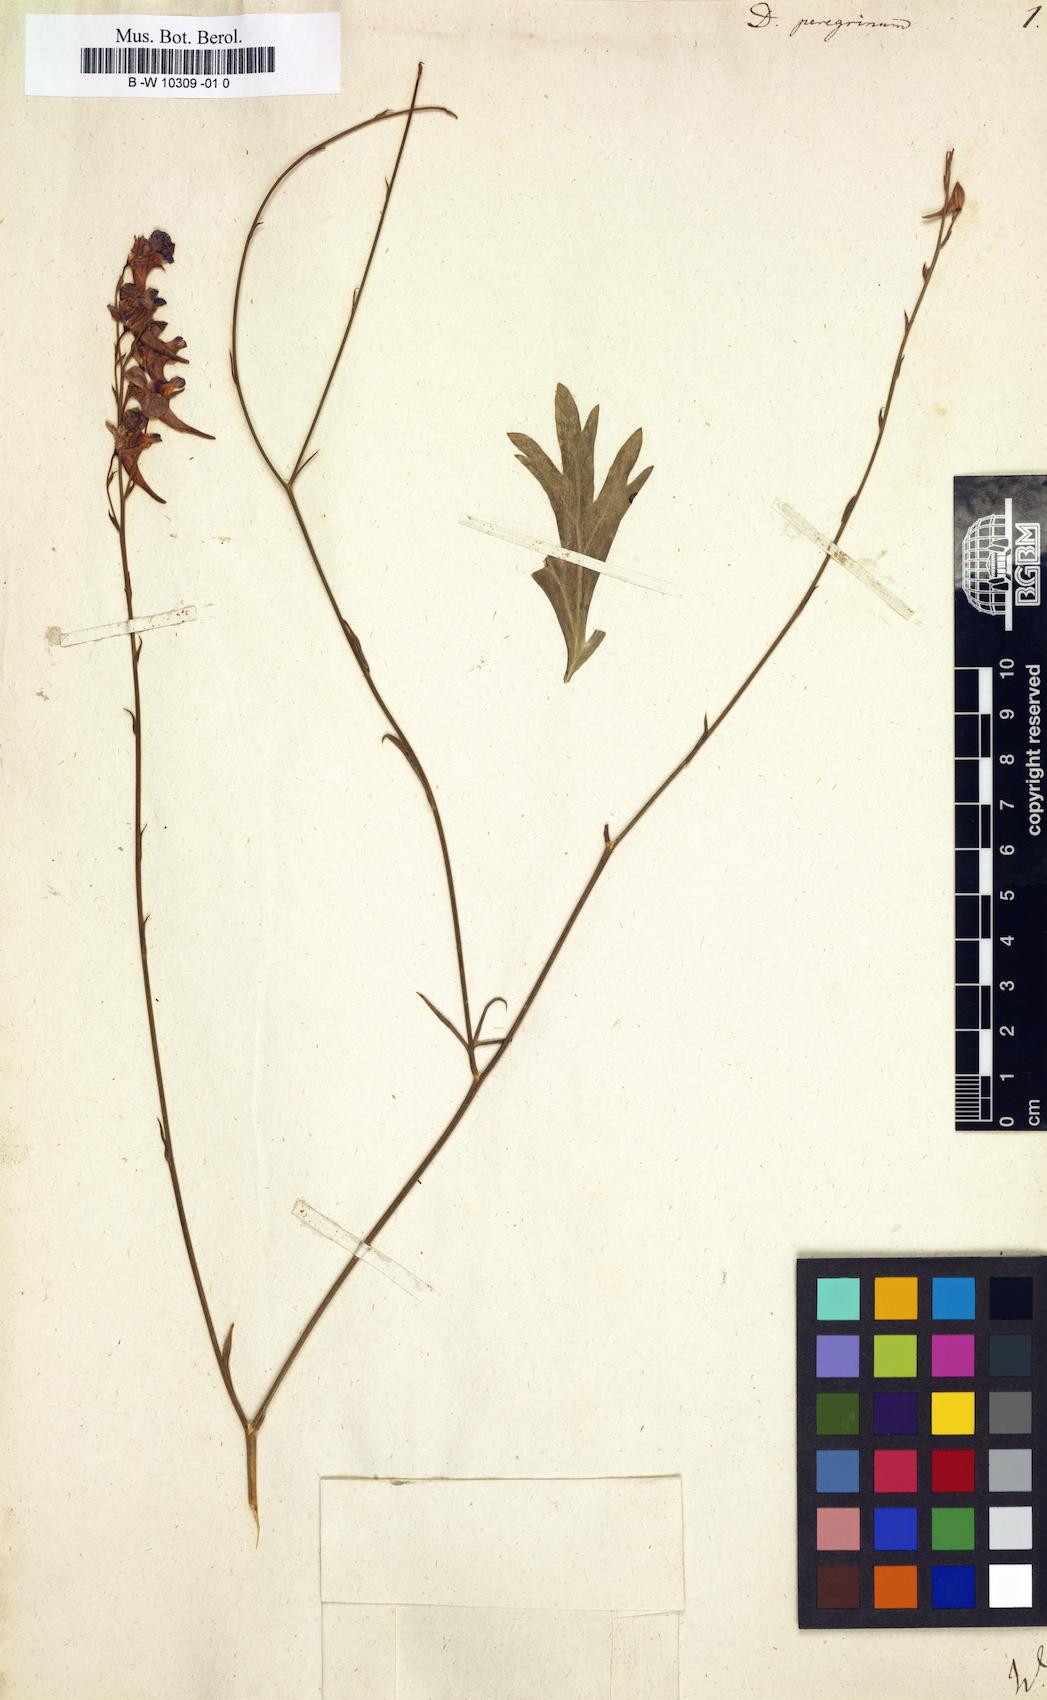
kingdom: Plantae
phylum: Tracheophyta
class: Magnoliopsida
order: Ranunculales
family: Ranunculaceae
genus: Delphinium
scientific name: Delphinium peregrinum
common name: Violet larkspur
